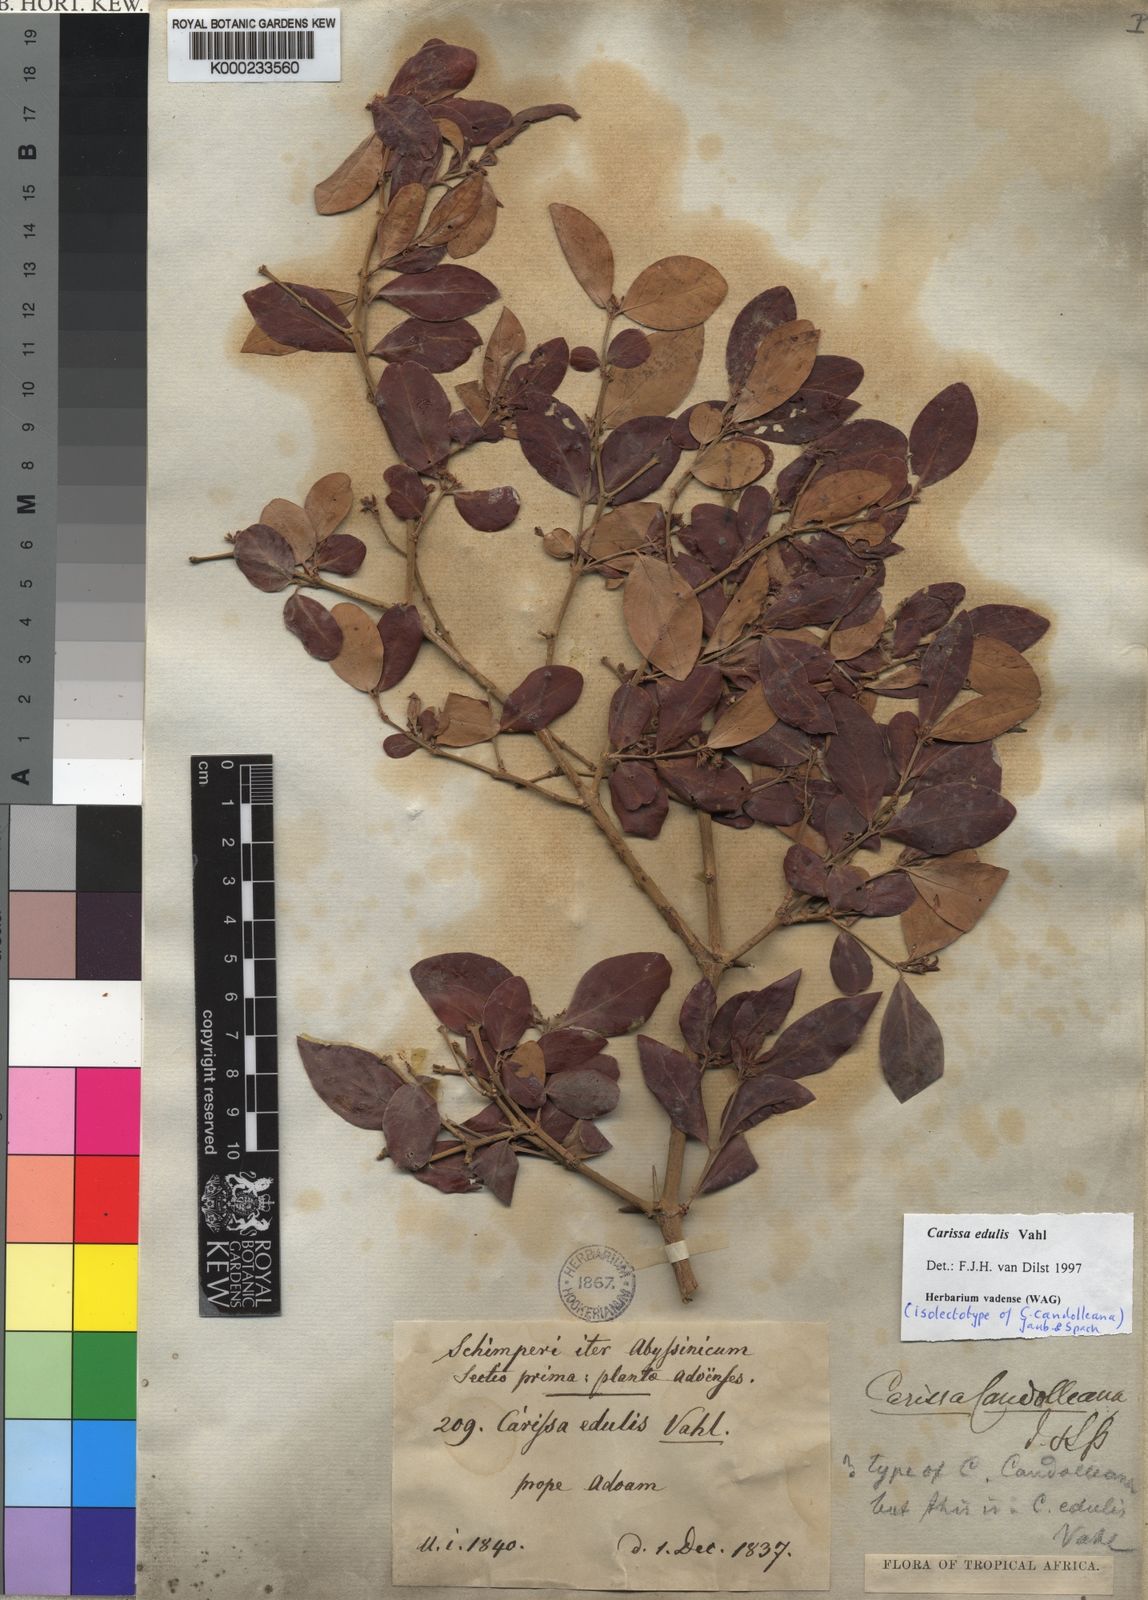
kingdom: Plantae
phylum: Tracheophyta
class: Magnoliopsida
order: Gentianales
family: Apocynaceae
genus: Carissa
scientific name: Carissa spinarum
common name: Egyptian carissa
